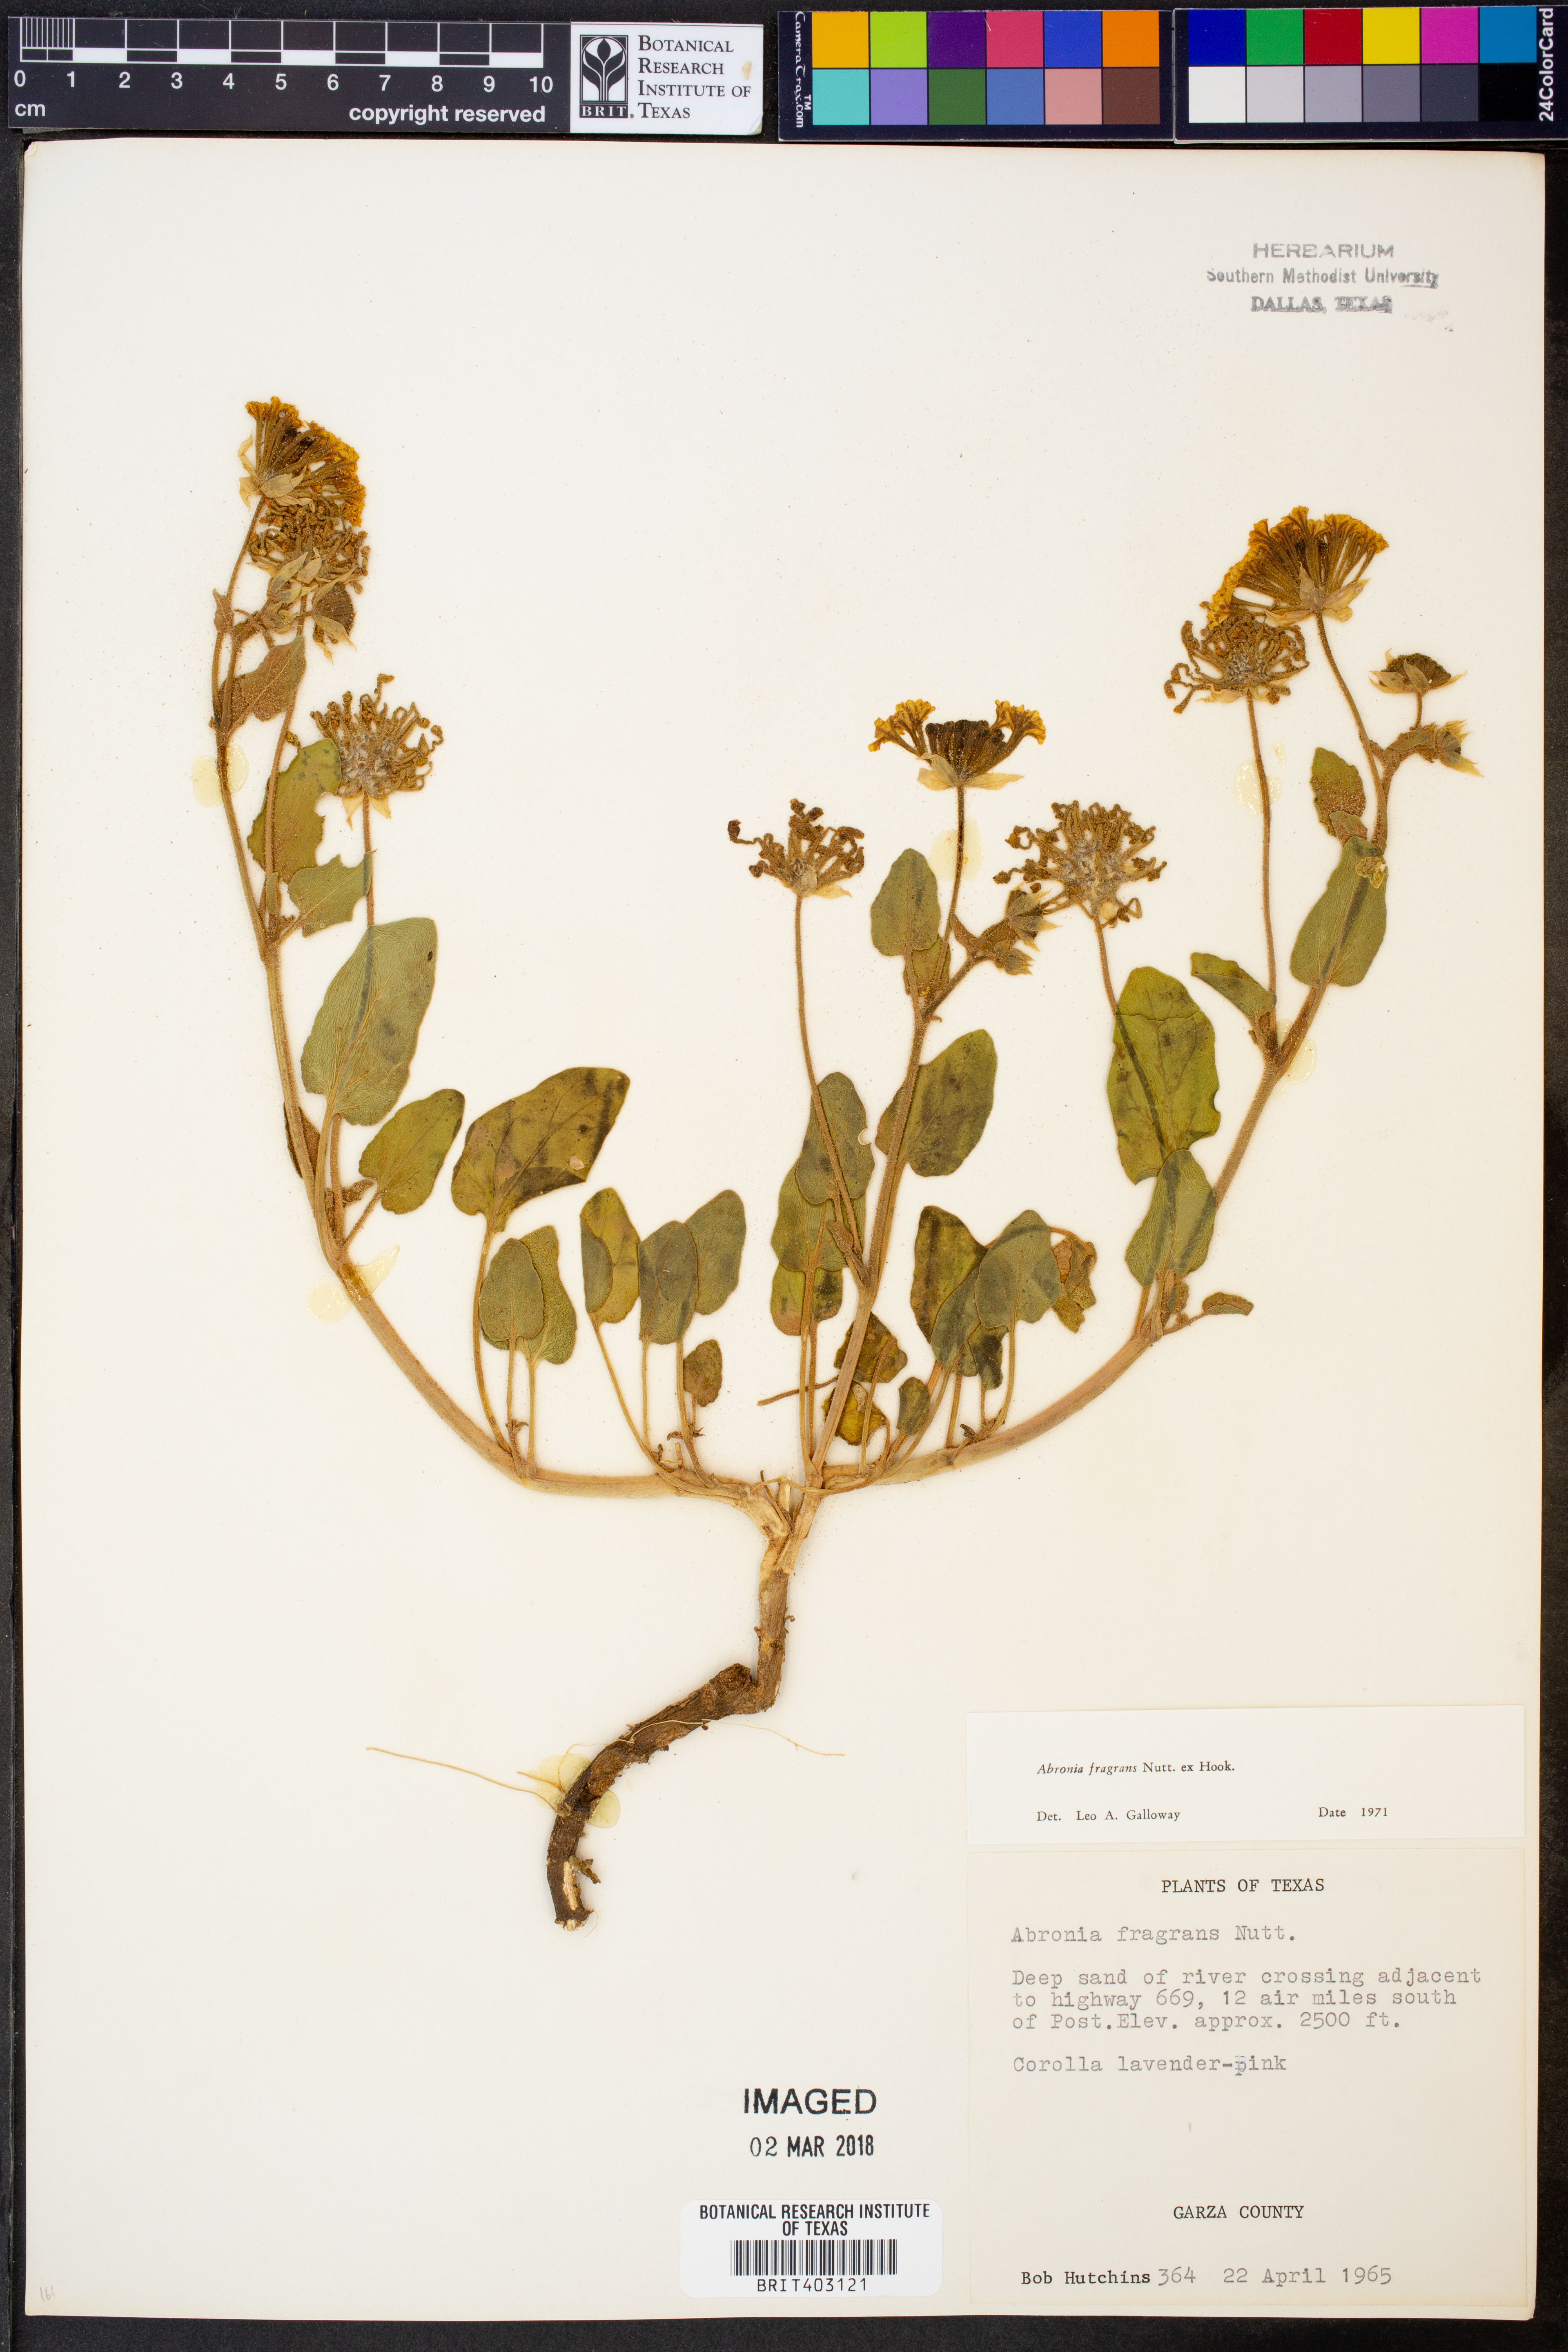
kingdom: Plantae
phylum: Tracheophyta
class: Magnoliopsida
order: Caryophyllales
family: Nyctaginaceae
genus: Abronia
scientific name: Abronia fragrans
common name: Fragrant sand-verbena
